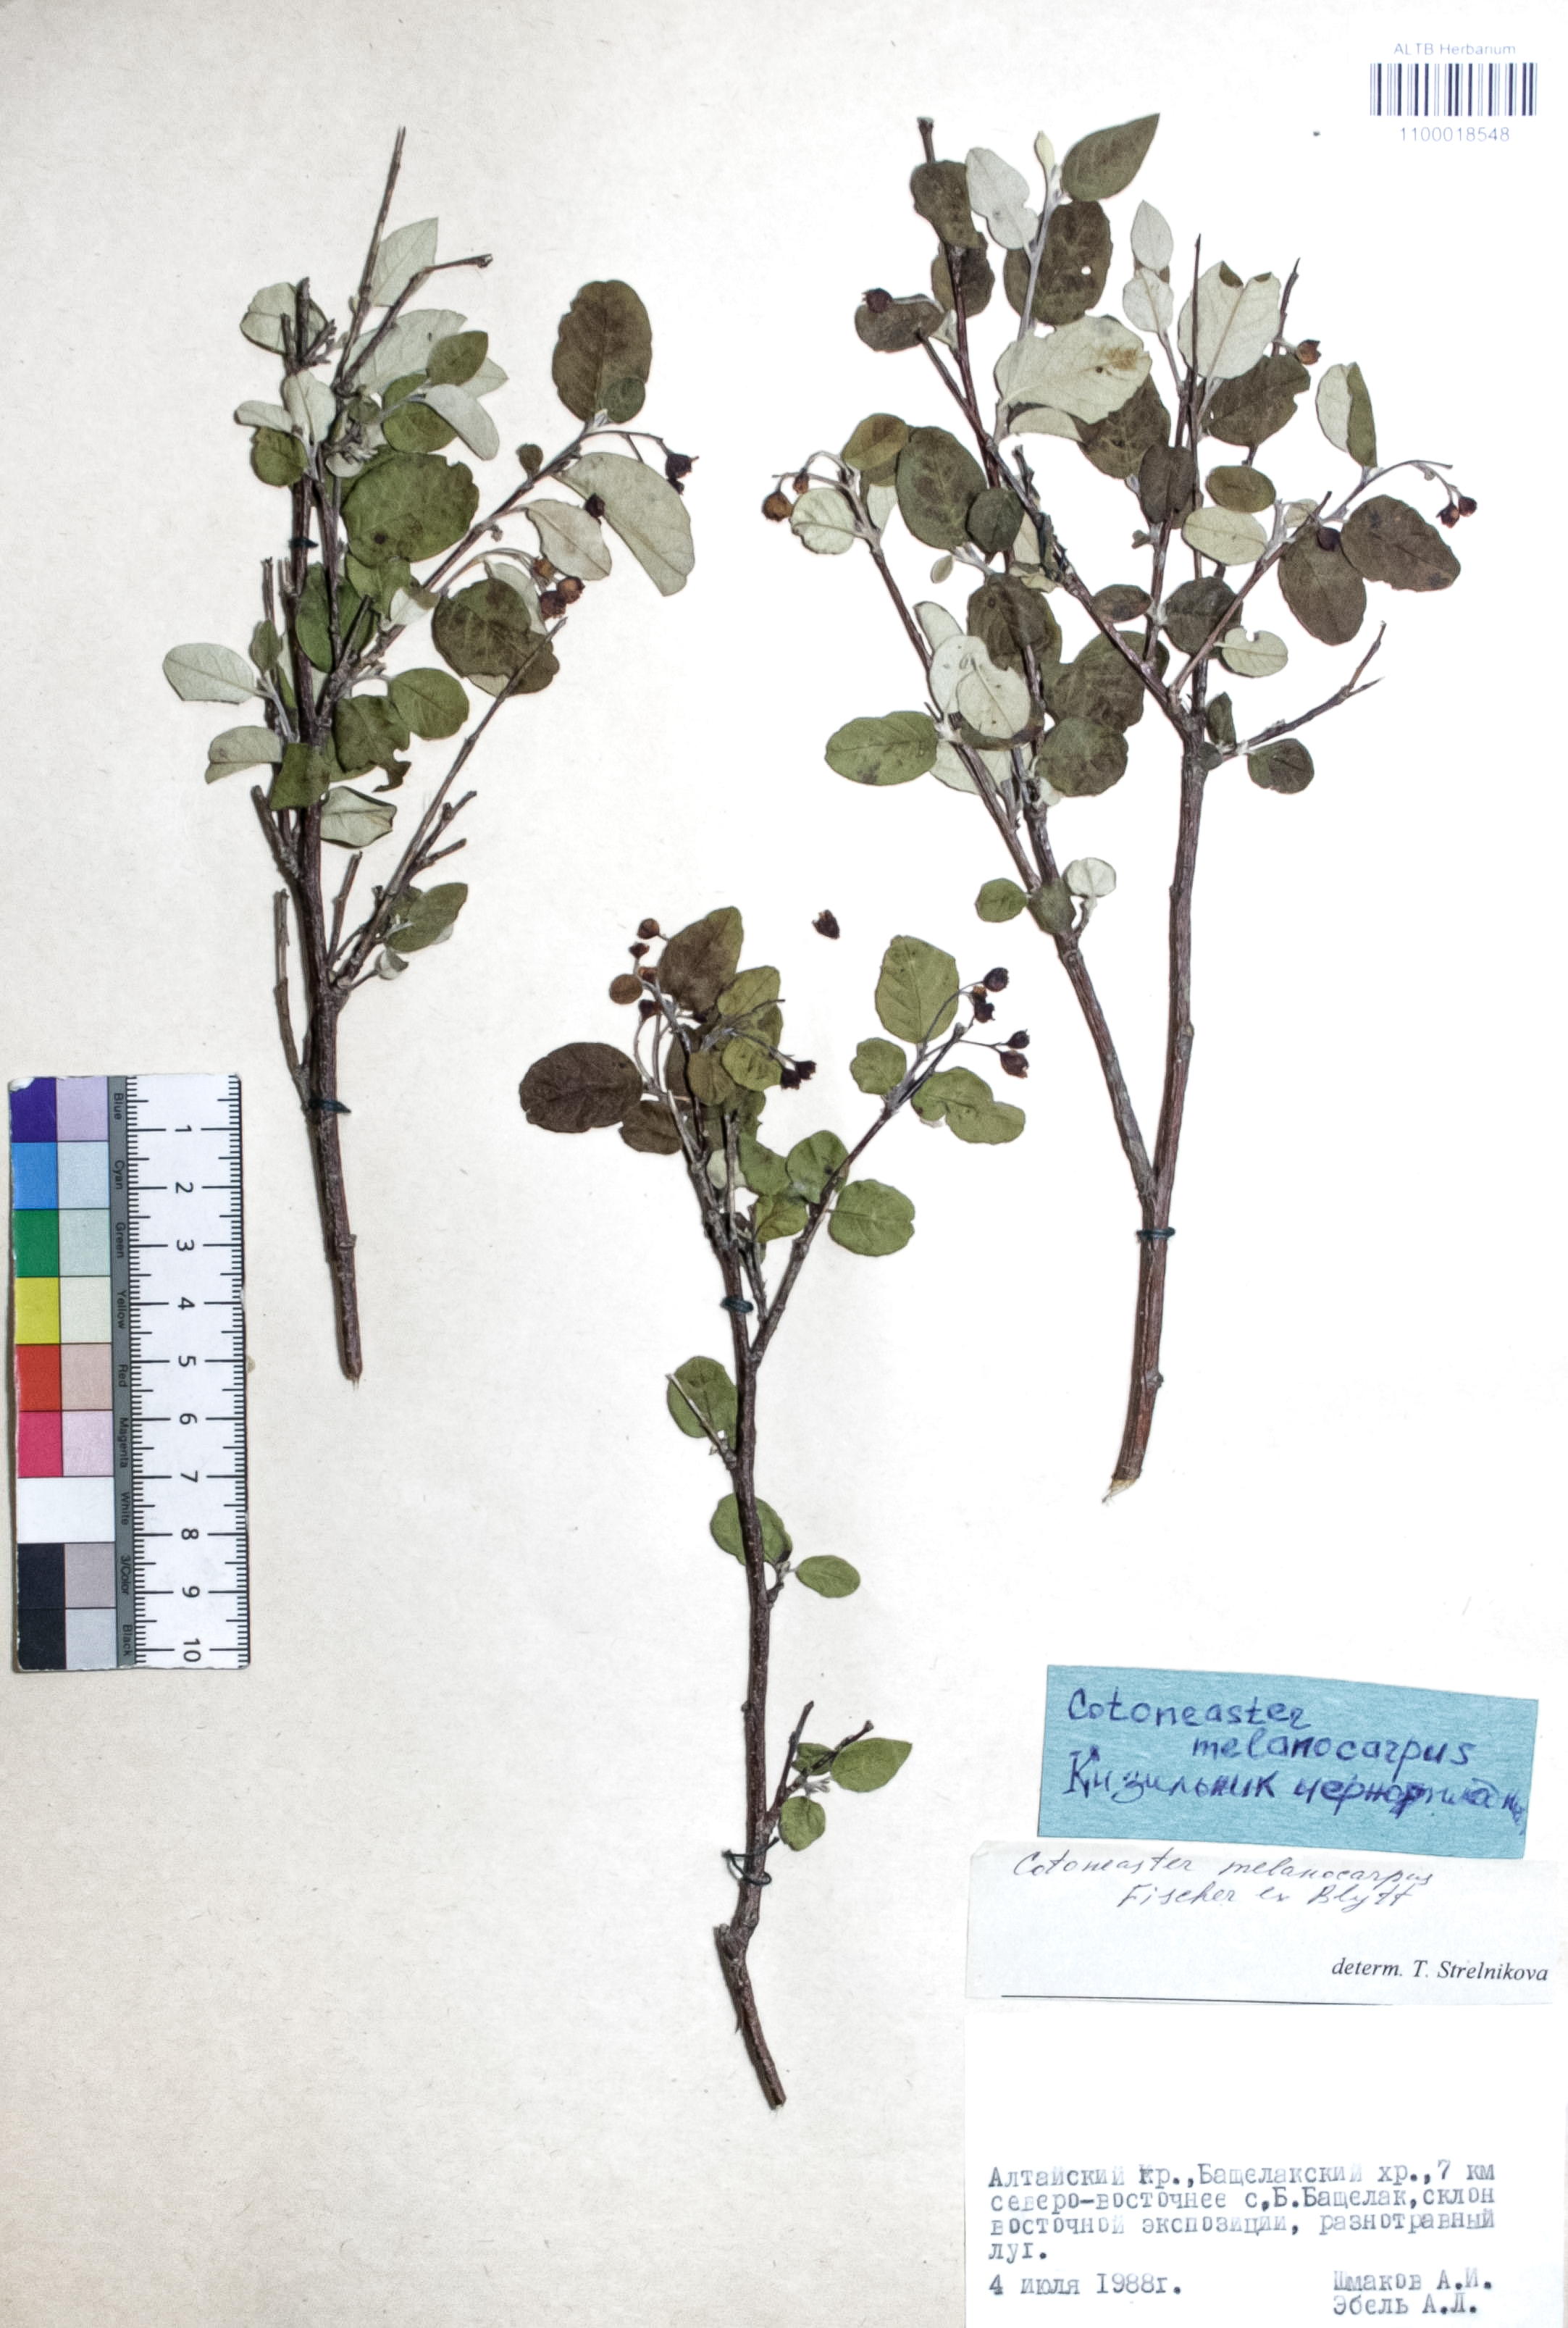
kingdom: Plantae
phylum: Tracheophyta
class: Magnoliopsida
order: Rosales
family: Rosaceae
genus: Cotoneaster
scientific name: Cotoneaster niger
